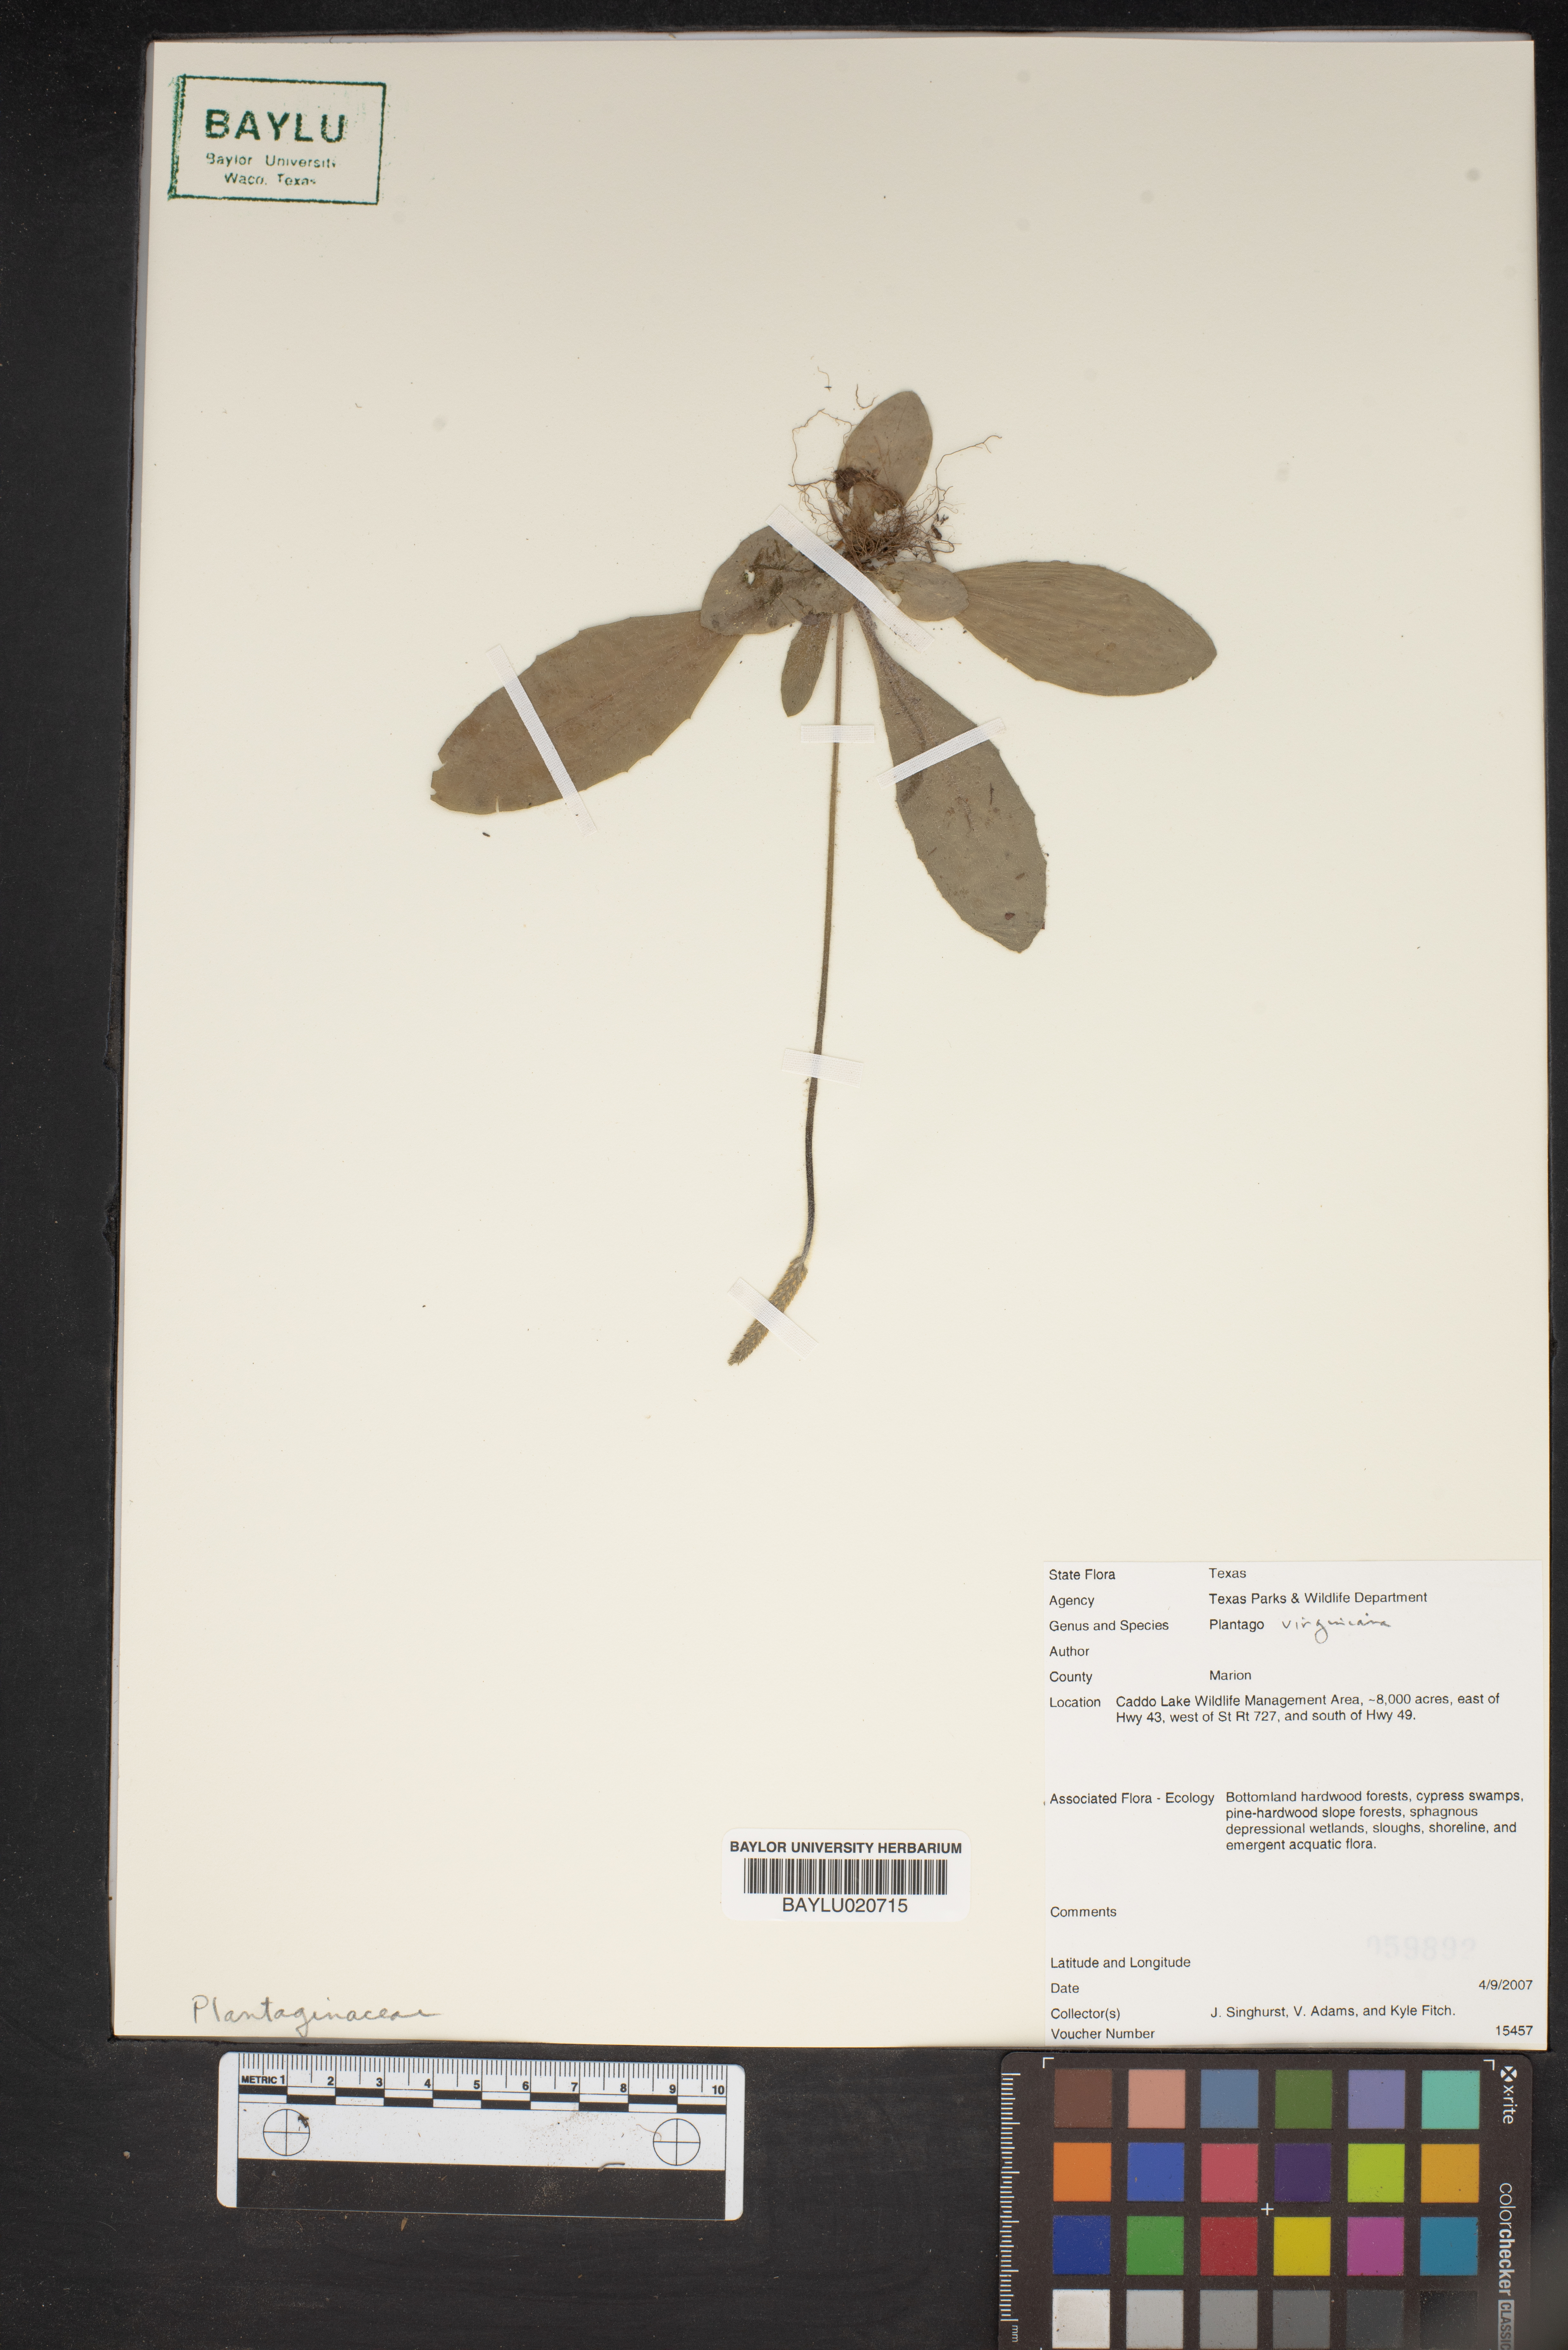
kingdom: Plantae
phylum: Tracheophyta
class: Magnoliopsida
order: Lamiales
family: Plantaginaceae
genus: Plantago
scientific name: Plantago virginica
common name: Hoary plantain
